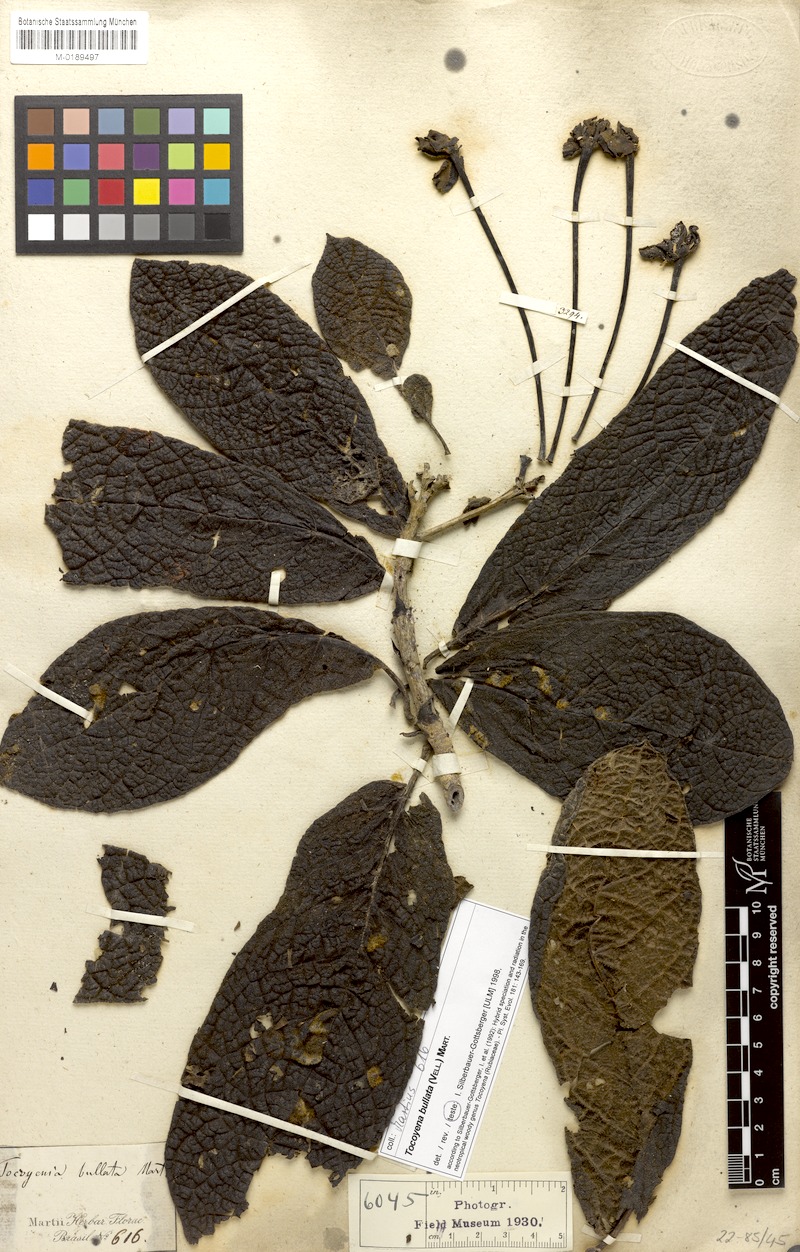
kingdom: Plantae
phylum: Tracheophyta
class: Magnoliopsida
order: Gentianales
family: Rubiaceae
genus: Tocoyena
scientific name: Tocoyena bullata
